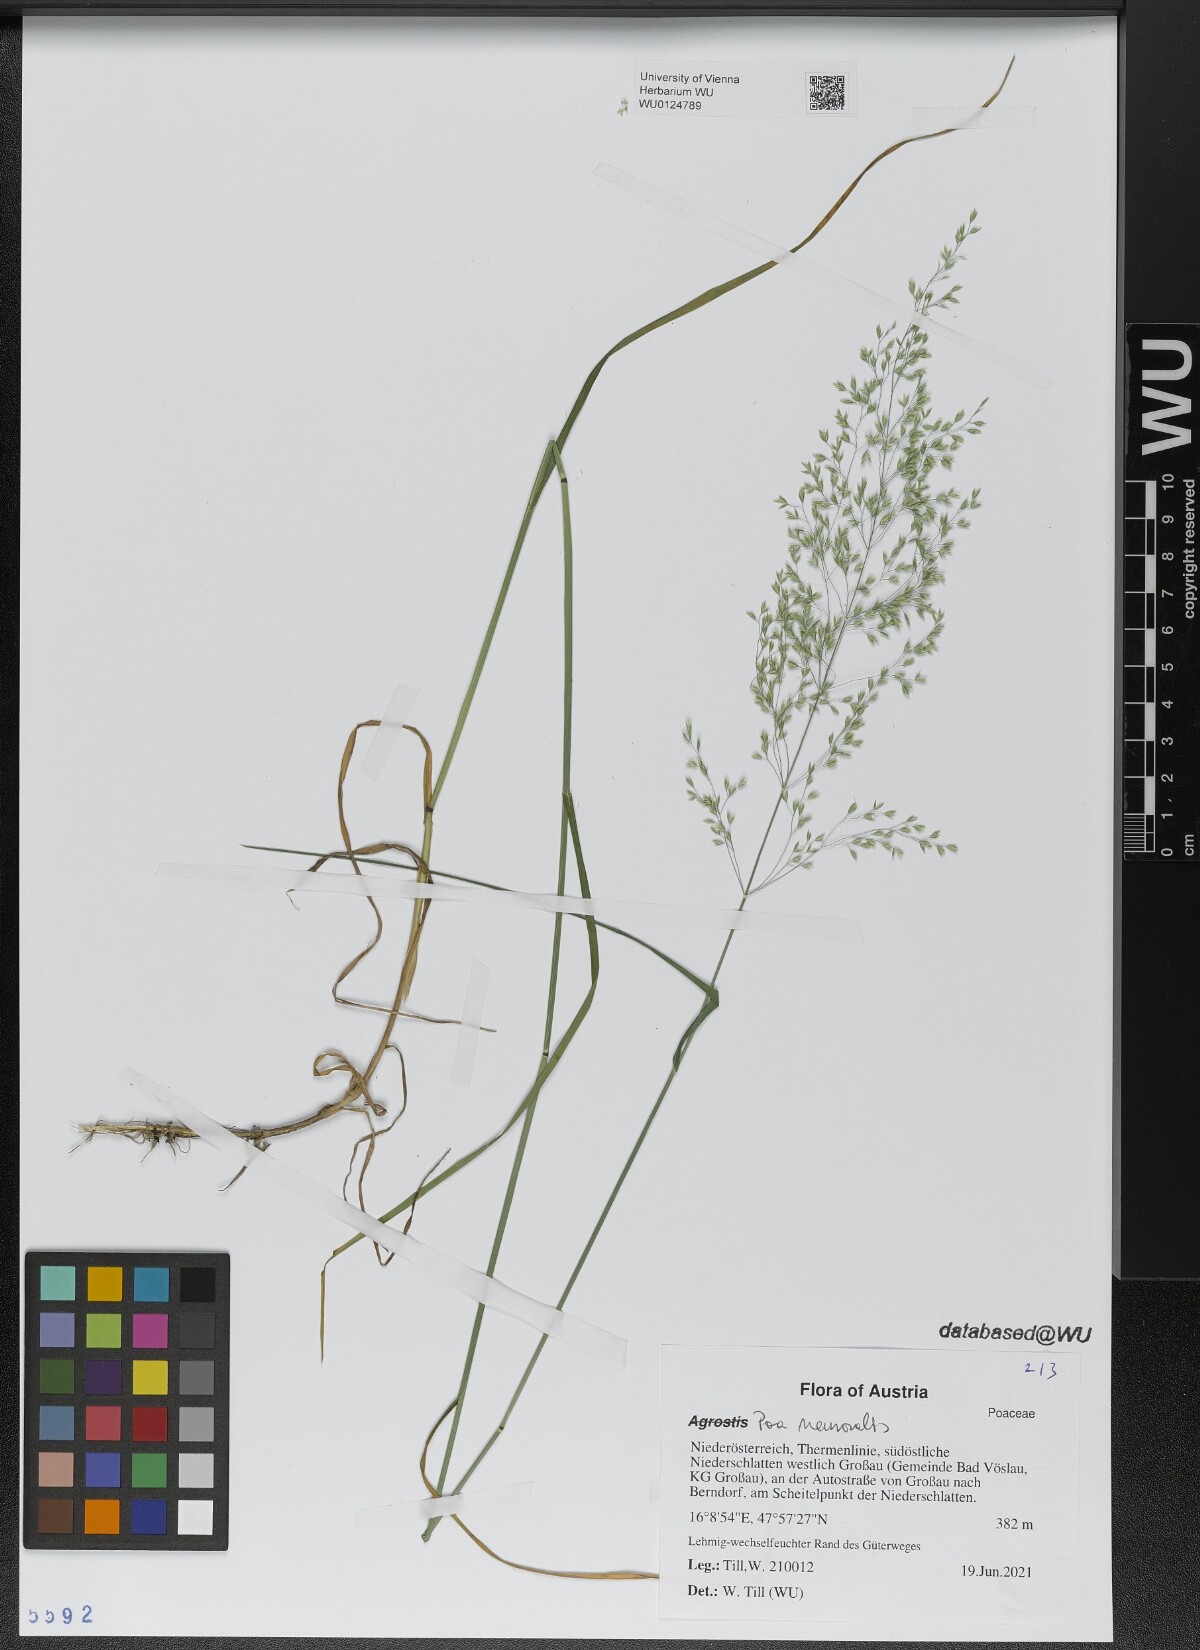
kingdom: Plantae
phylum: Tracheophyta
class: Liliopsida
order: Poales
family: Poaceae
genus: Poa
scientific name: Poa nemoralis
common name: Wood bluegrass
